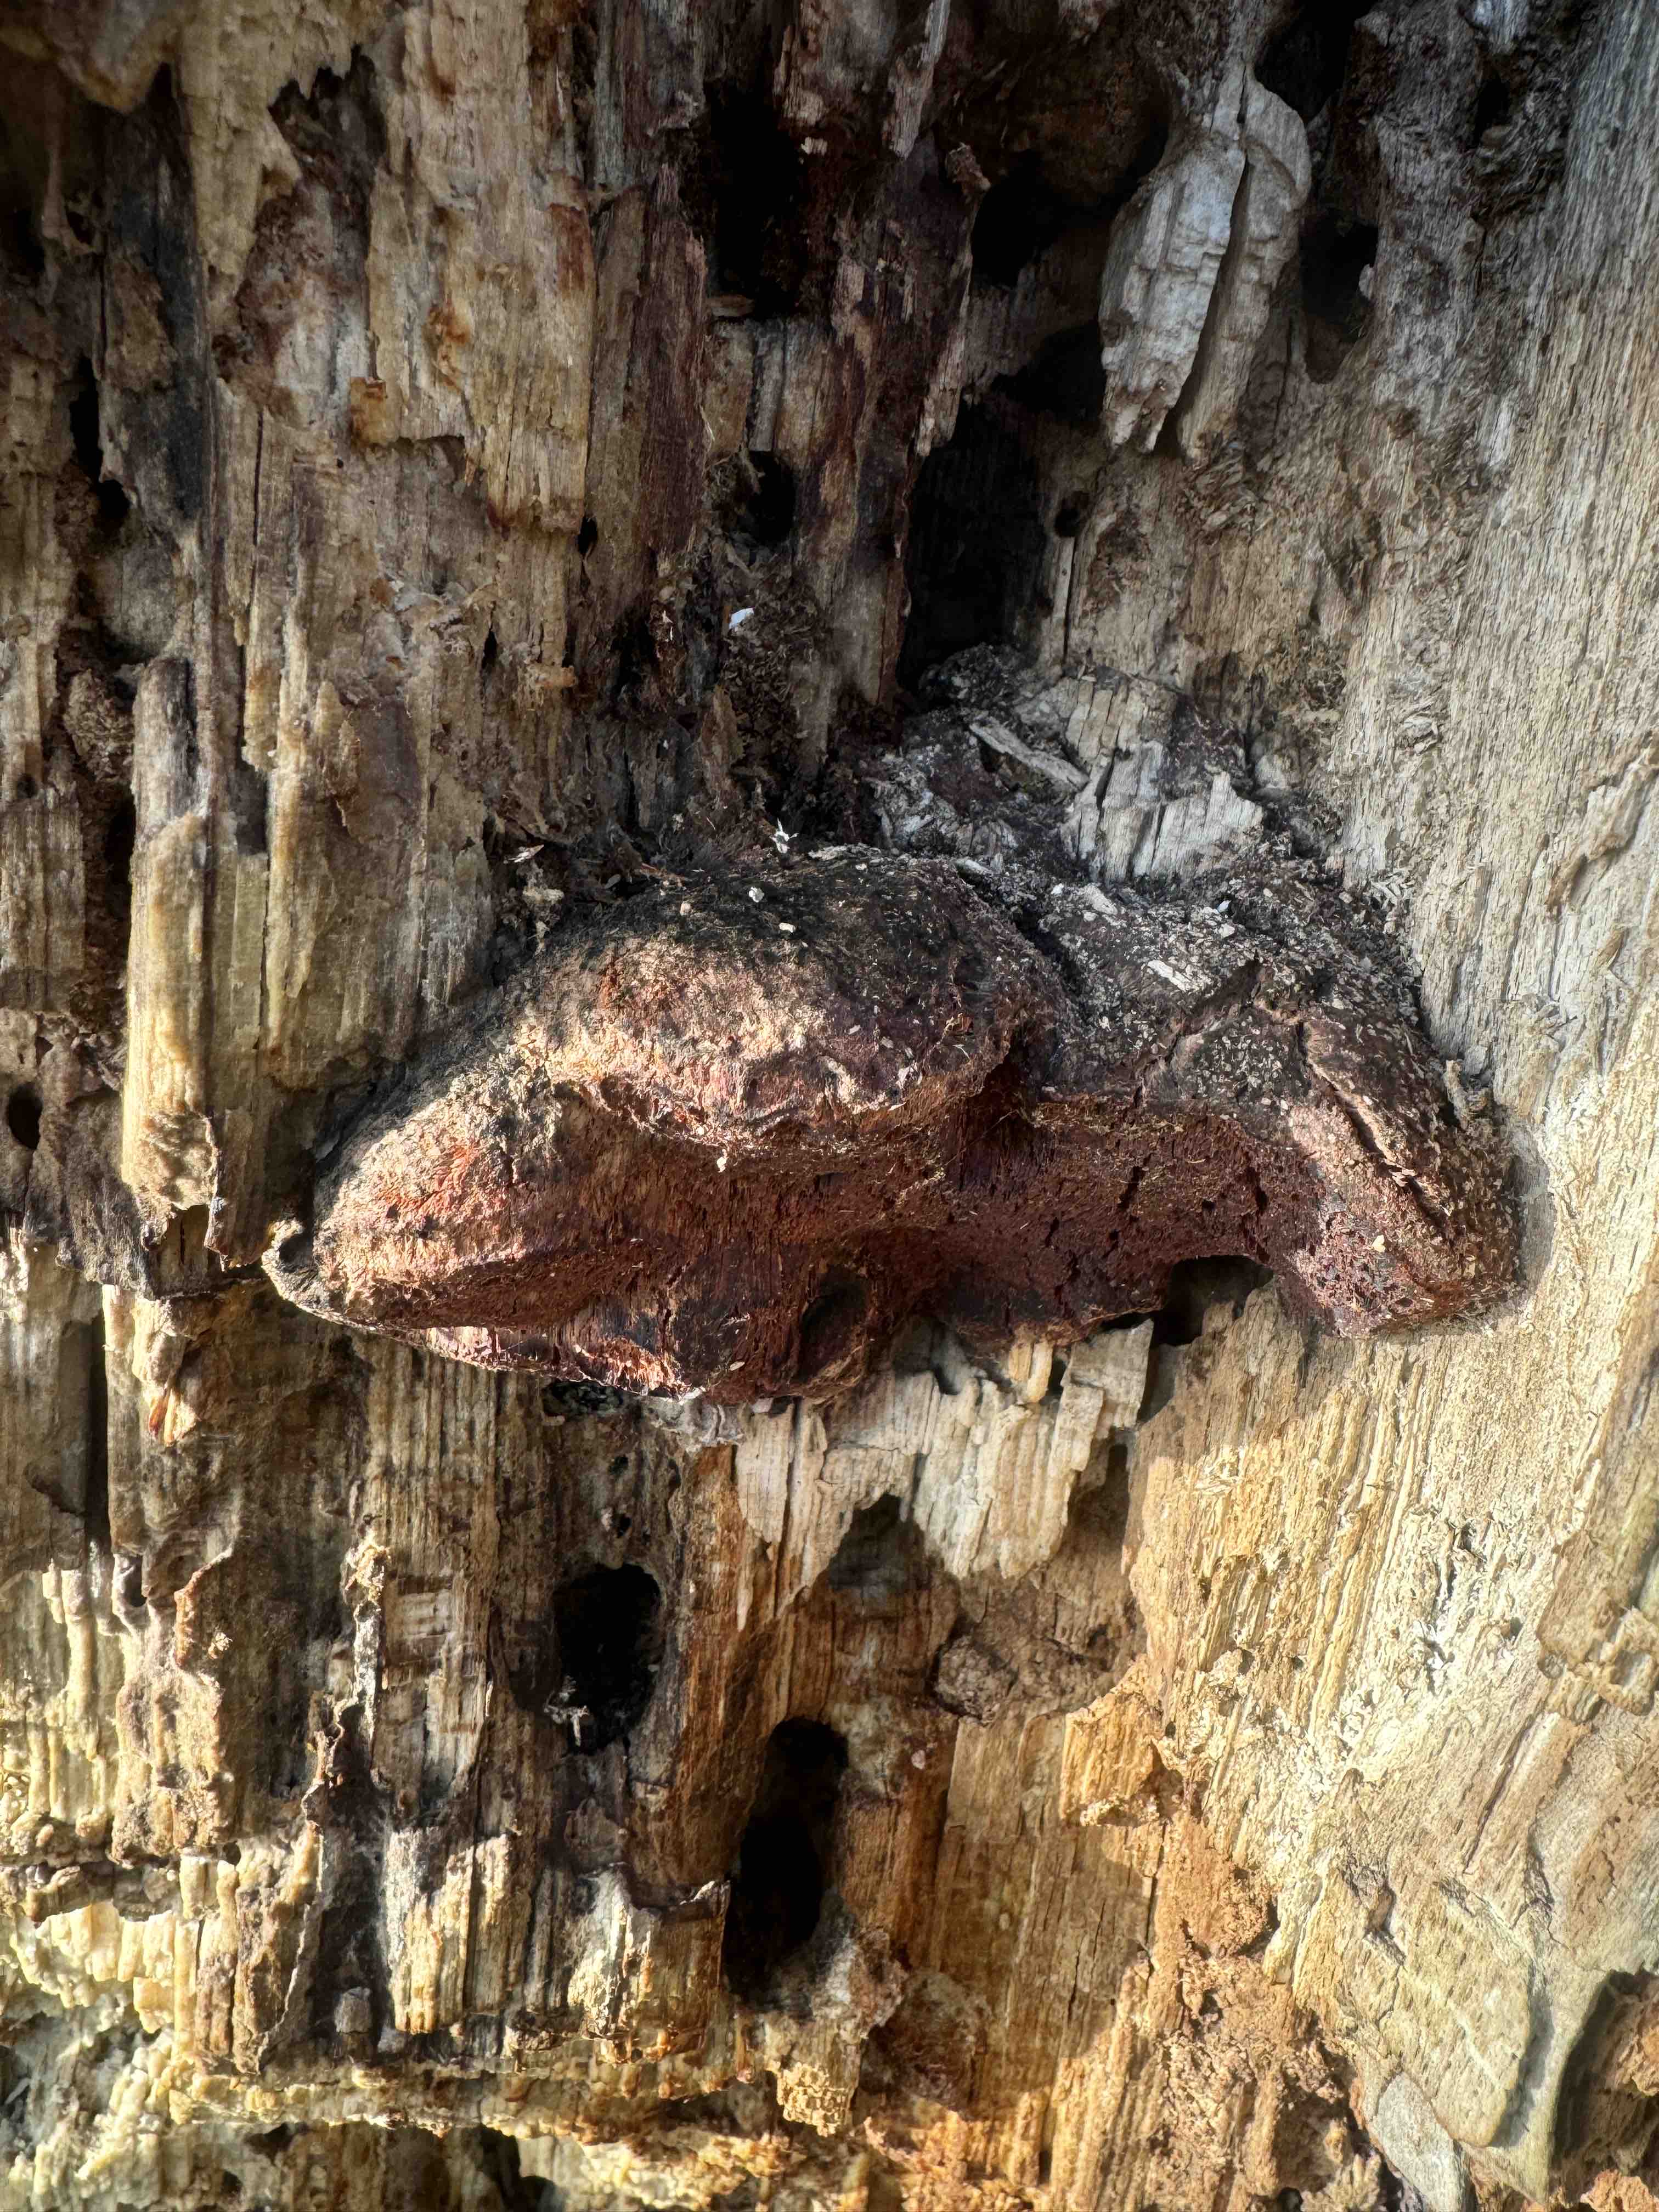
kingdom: Fungi
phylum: Basidiomycota
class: Agaricomycetes
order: Polyporales
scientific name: Polyporales
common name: poresvampordenen
